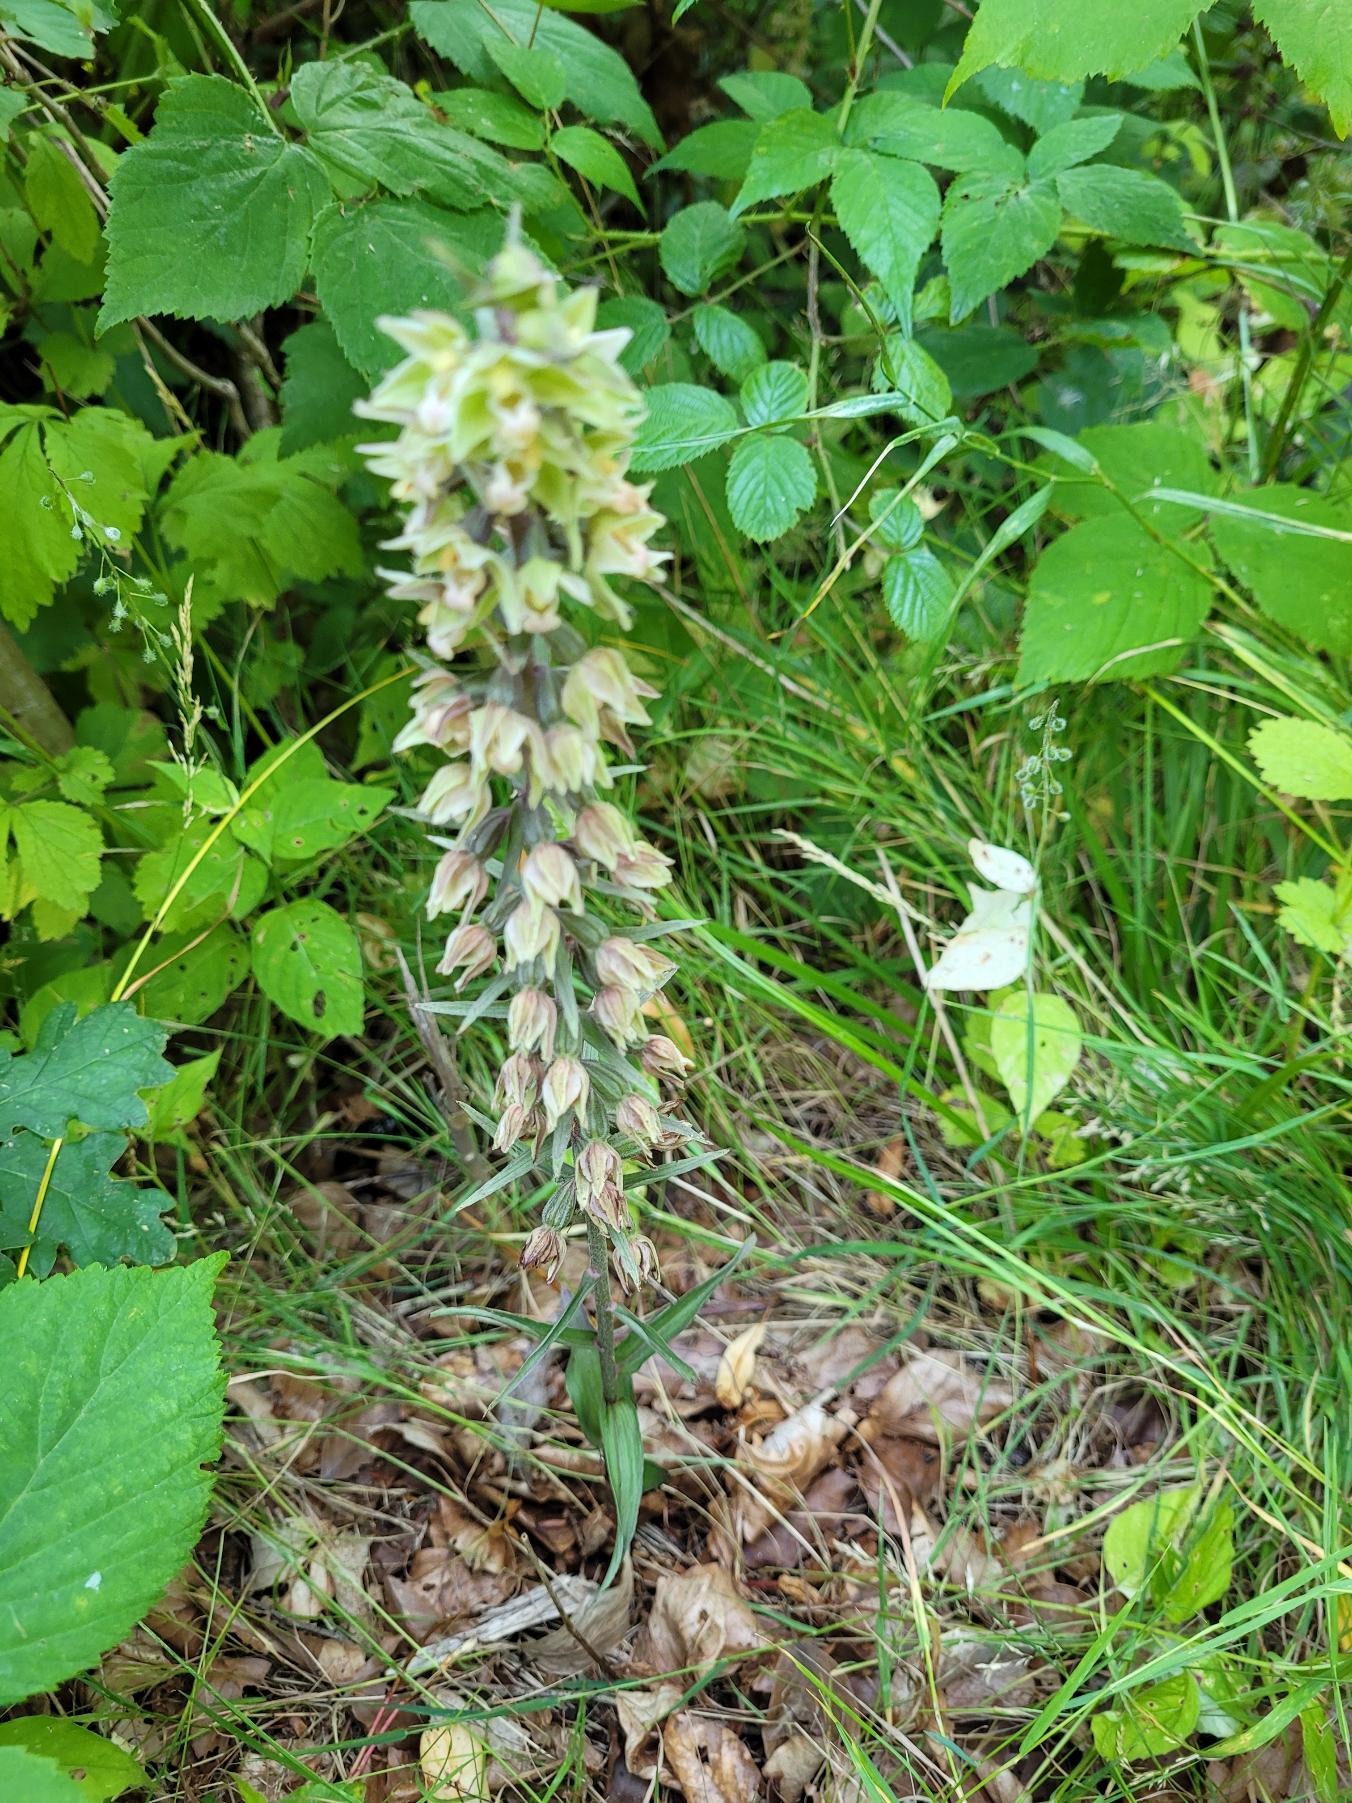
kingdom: Plantae
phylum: Tracheophyta
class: Liliopsida
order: Asparagales
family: Orchidaceae
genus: Epipactis
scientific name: Epipactis purpurata
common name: Tætblomstret hullæbe
